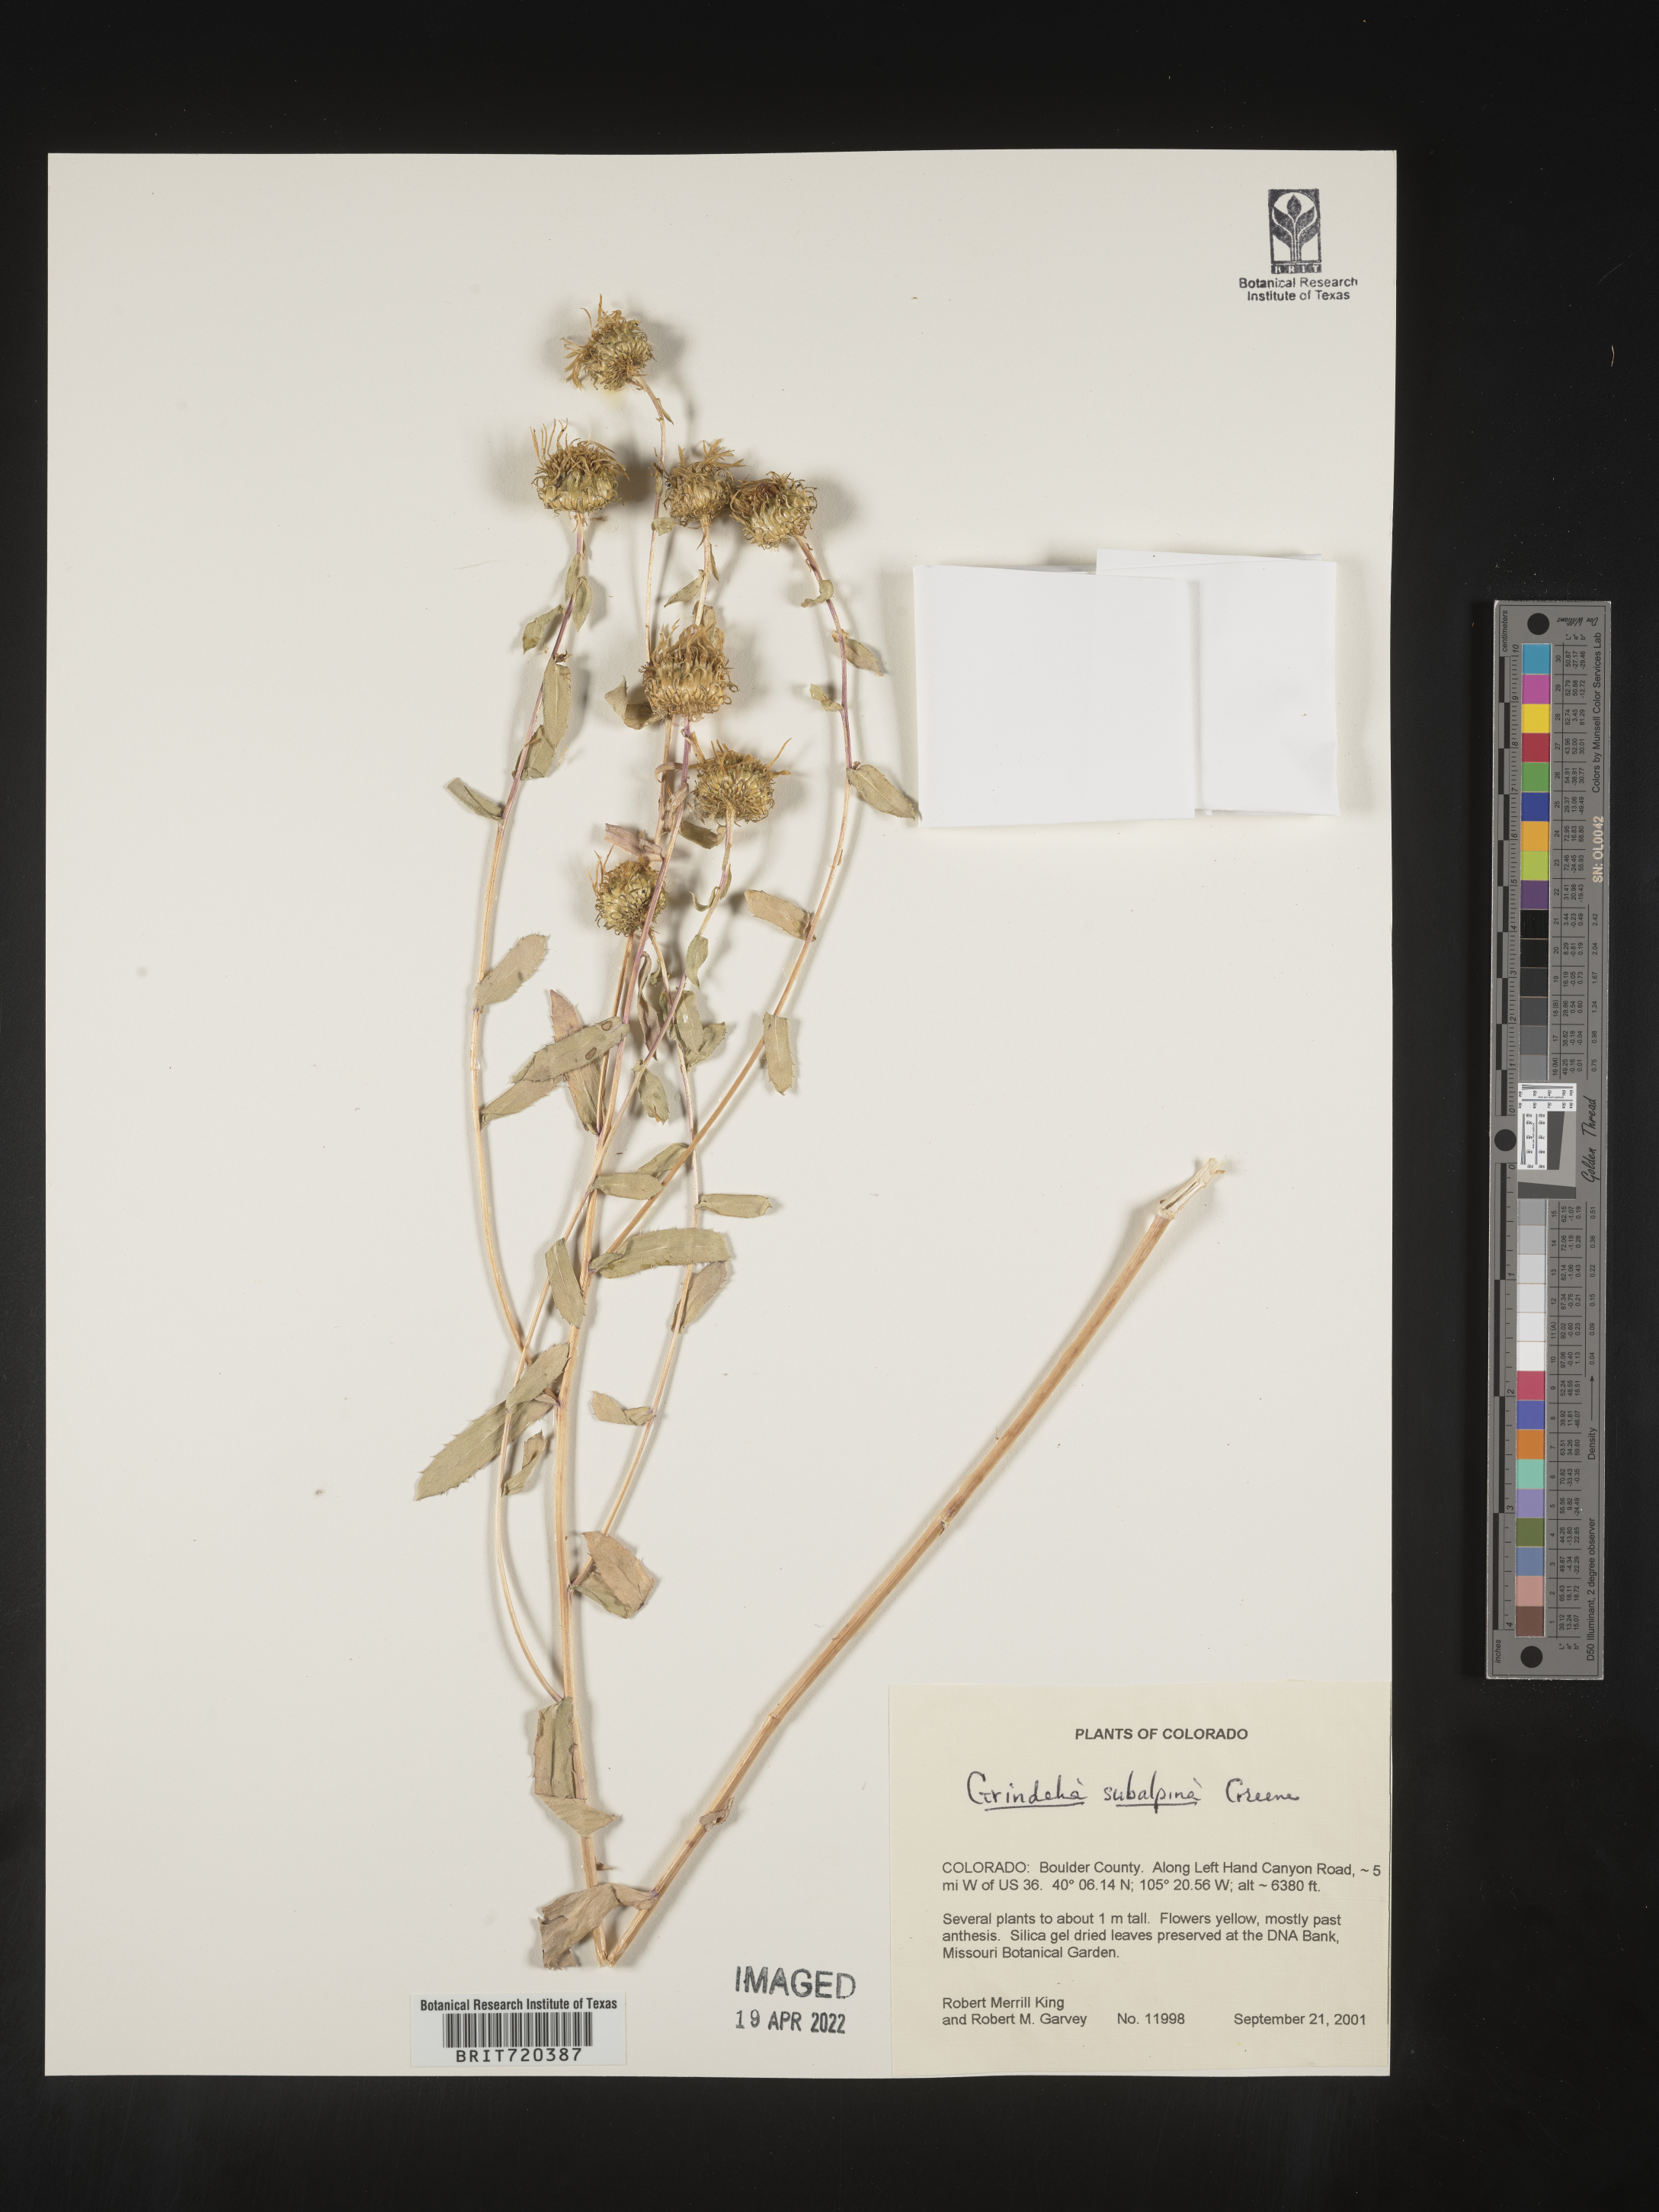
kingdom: Plantae
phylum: Tracheophyta
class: Magnoliopsida
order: Asterales
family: Asteraceae
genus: Grindelia
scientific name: Grindelia subalpina
